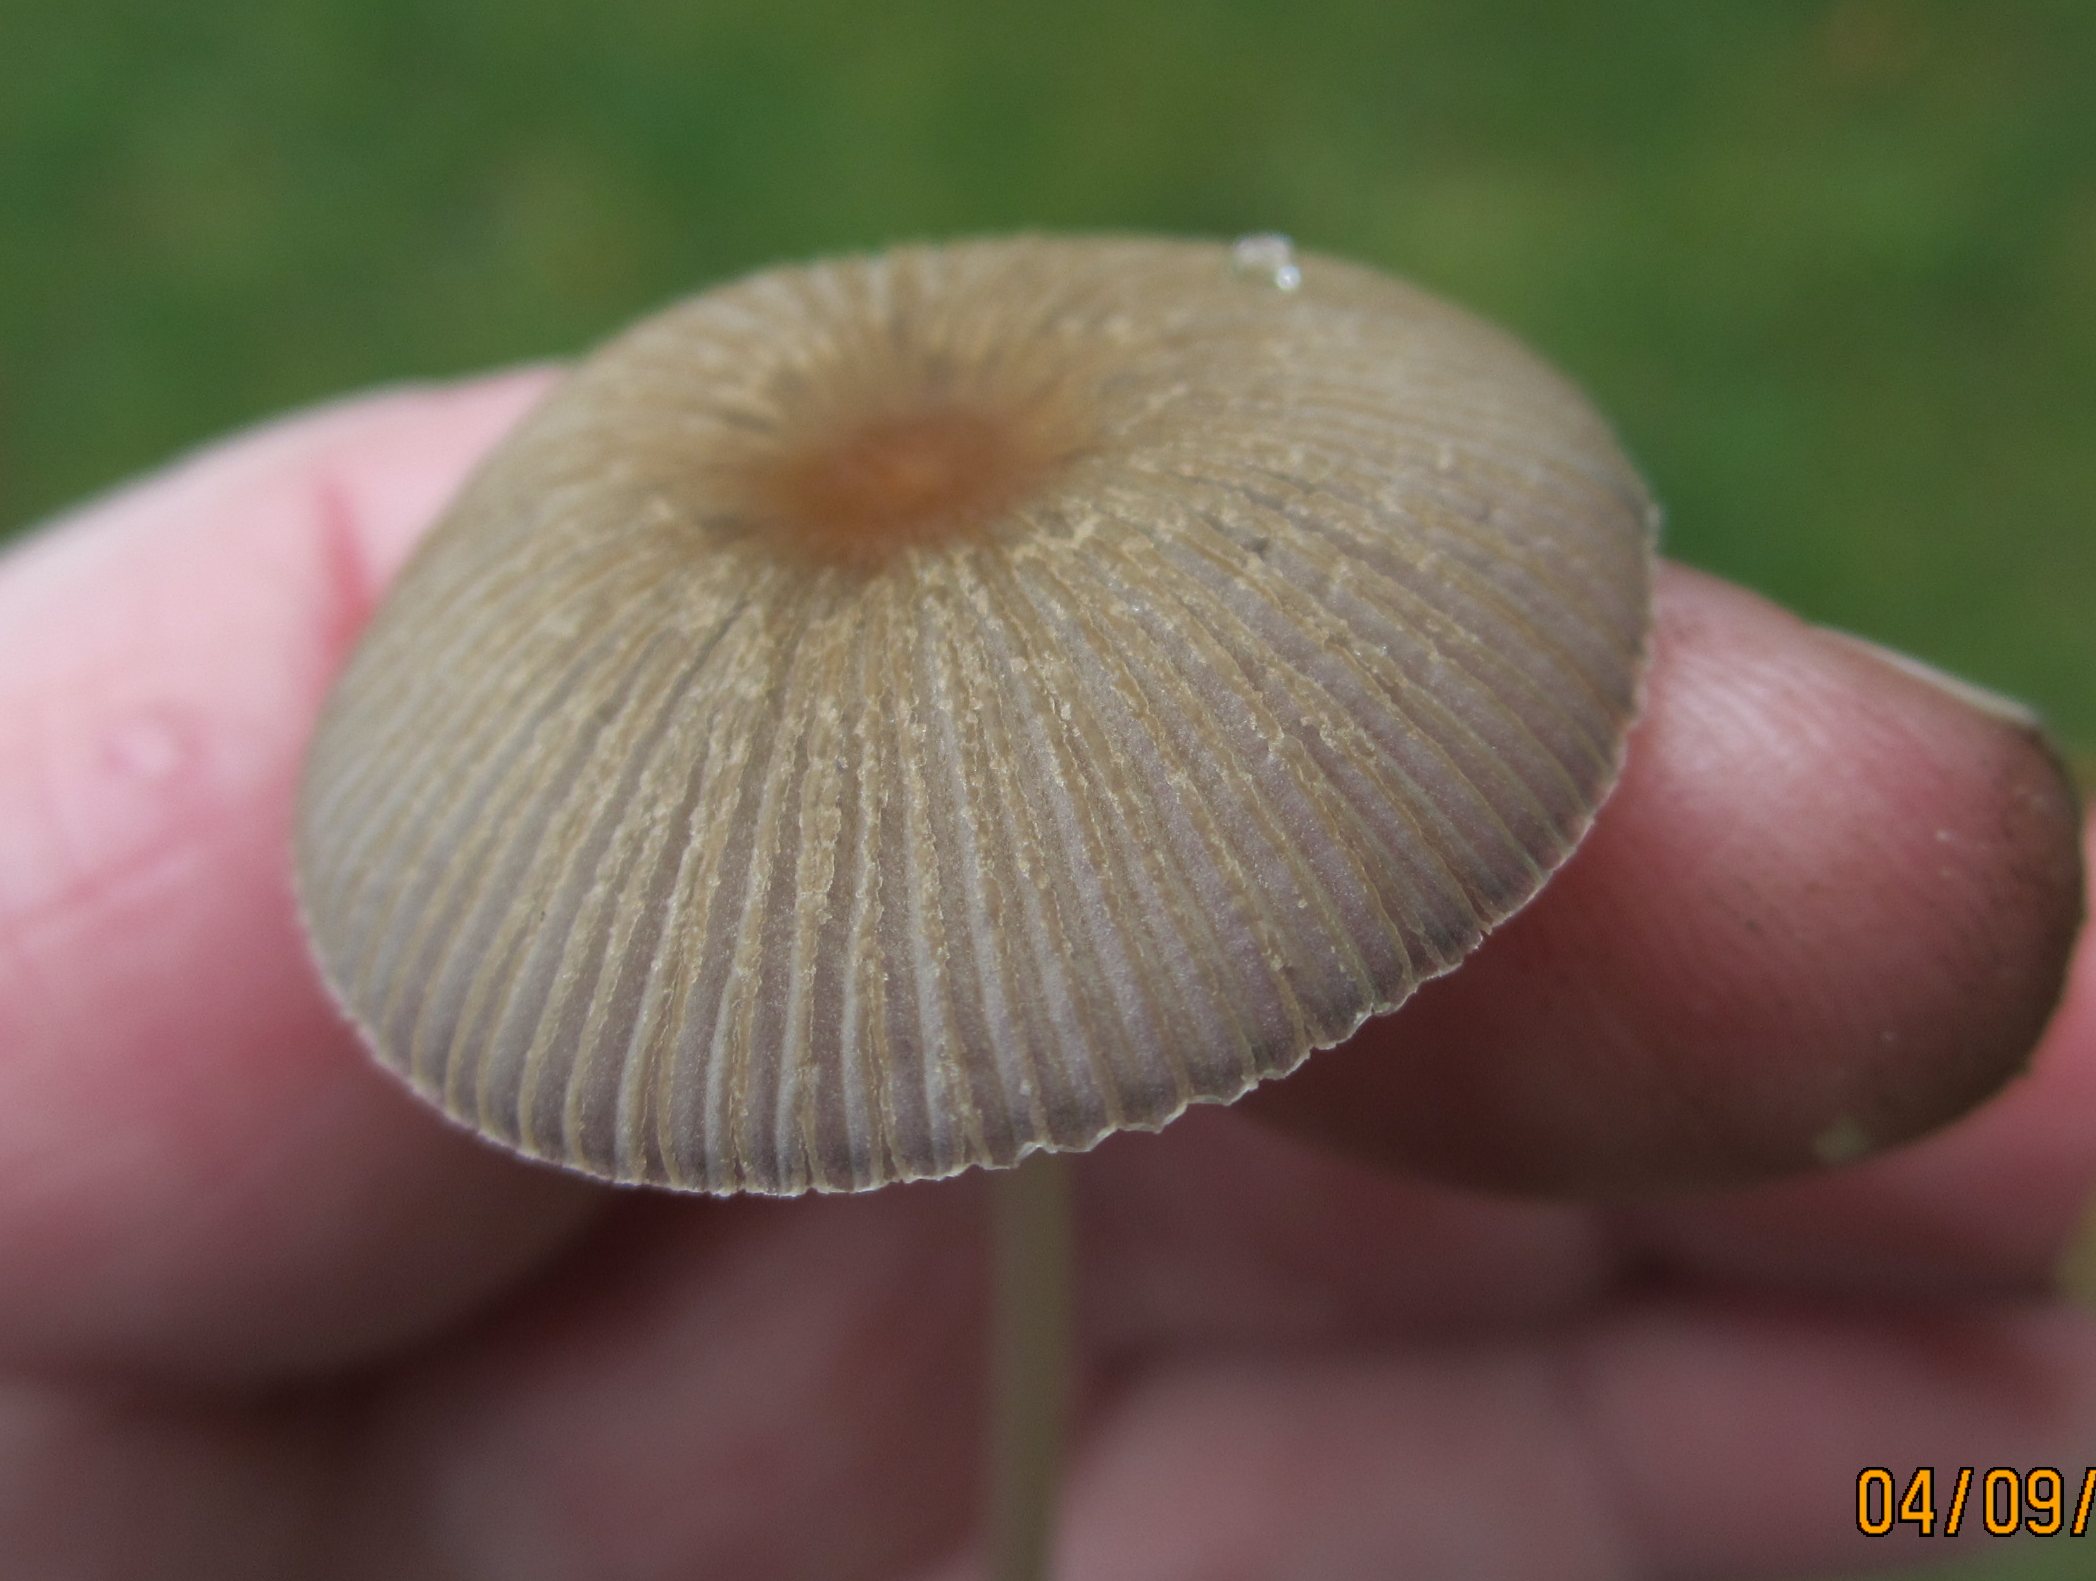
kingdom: Fungi
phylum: Basidiomycota
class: Agaricomycetes
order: Agaricales
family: Psathyrellaceae
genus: Parasola
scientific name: Parasola lactea
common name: glat hjulhat
